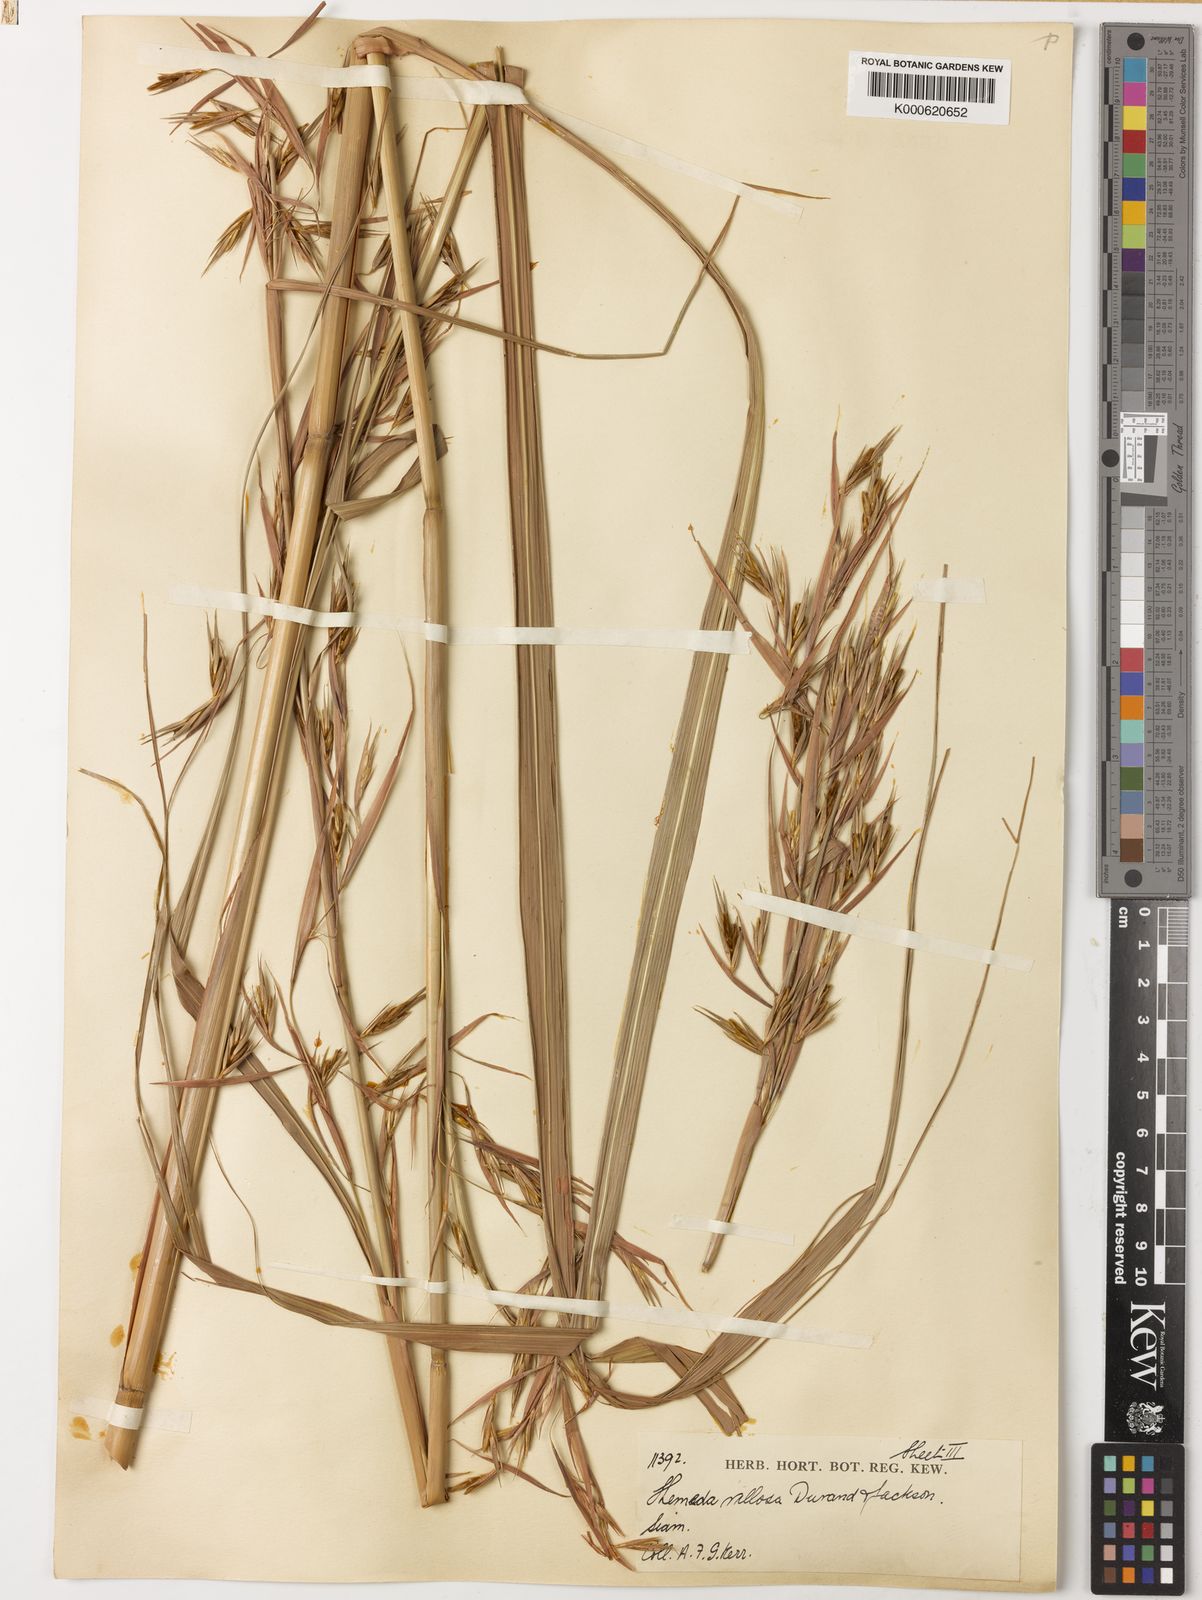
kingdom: Plantae
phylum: Tracheophyta
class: Liliopsida
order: Poales
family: Poaceae
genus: Themeda
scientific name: Themeda villosa
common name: Silky kangaroo grass
